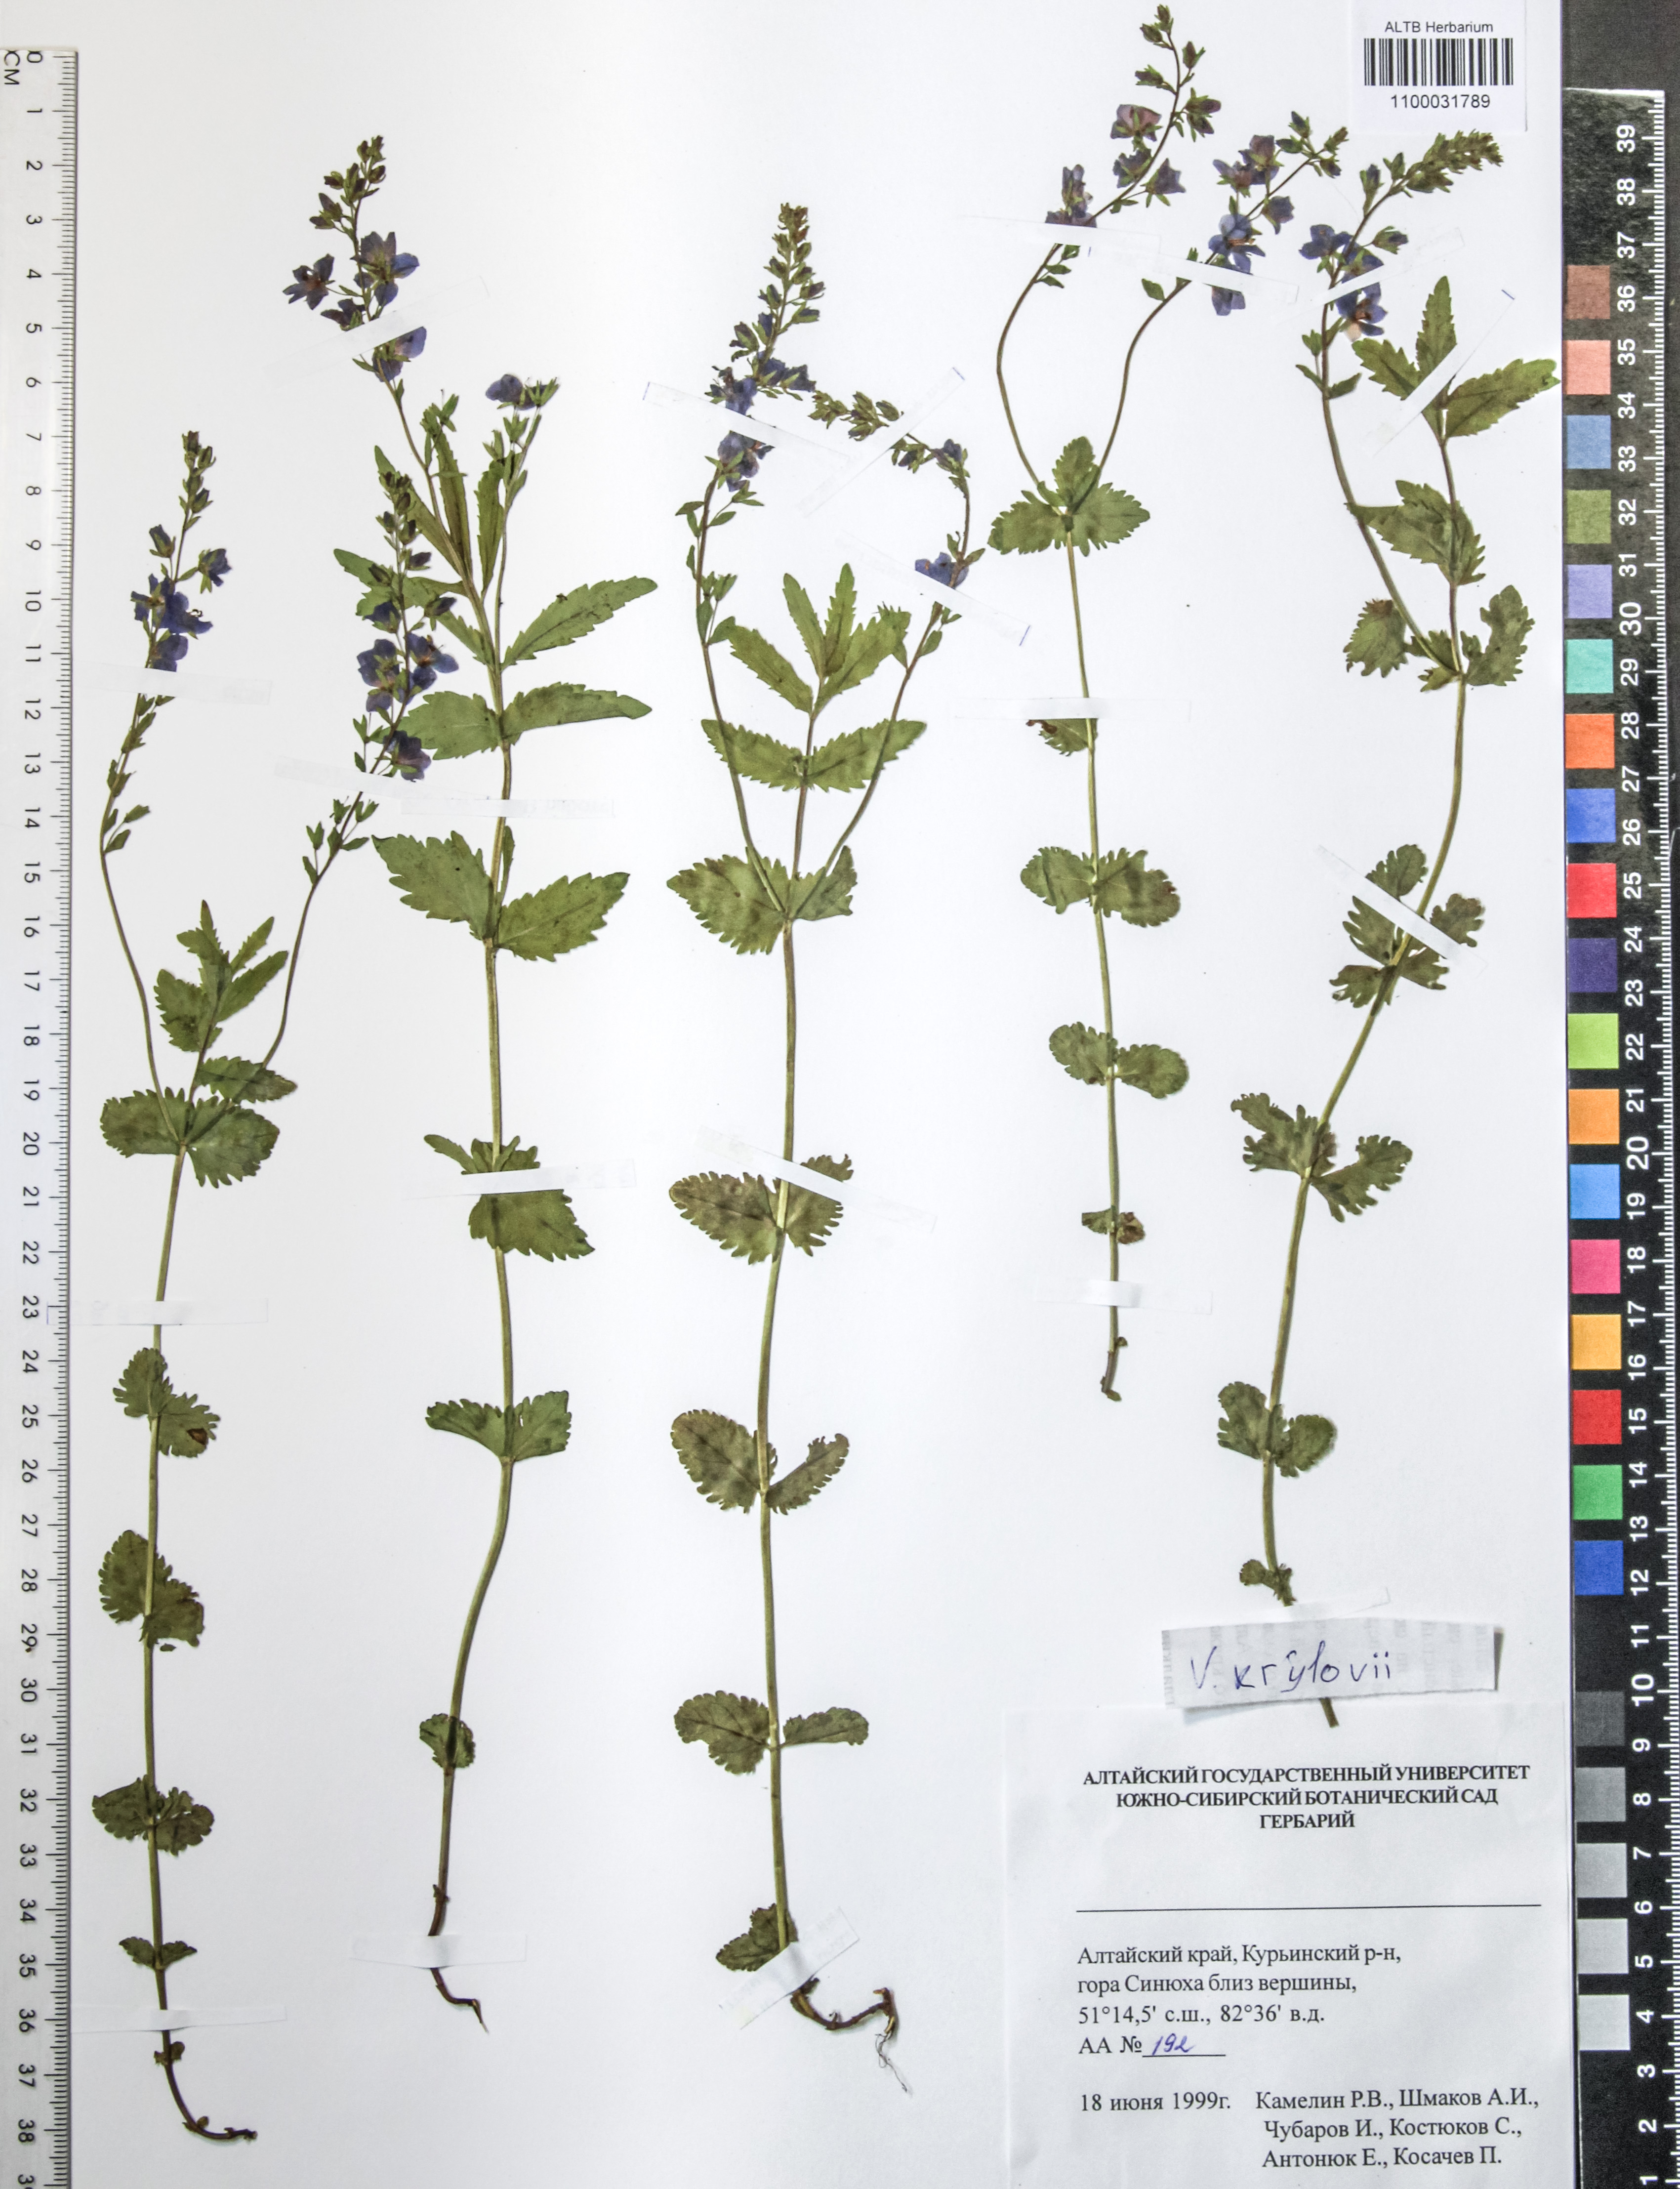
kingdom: Plantae
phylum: Tracheophyta
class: Magnoliopsida
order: Lamiales
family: Plantaginaceae
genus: Veronica
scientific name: Veronica krylovii
